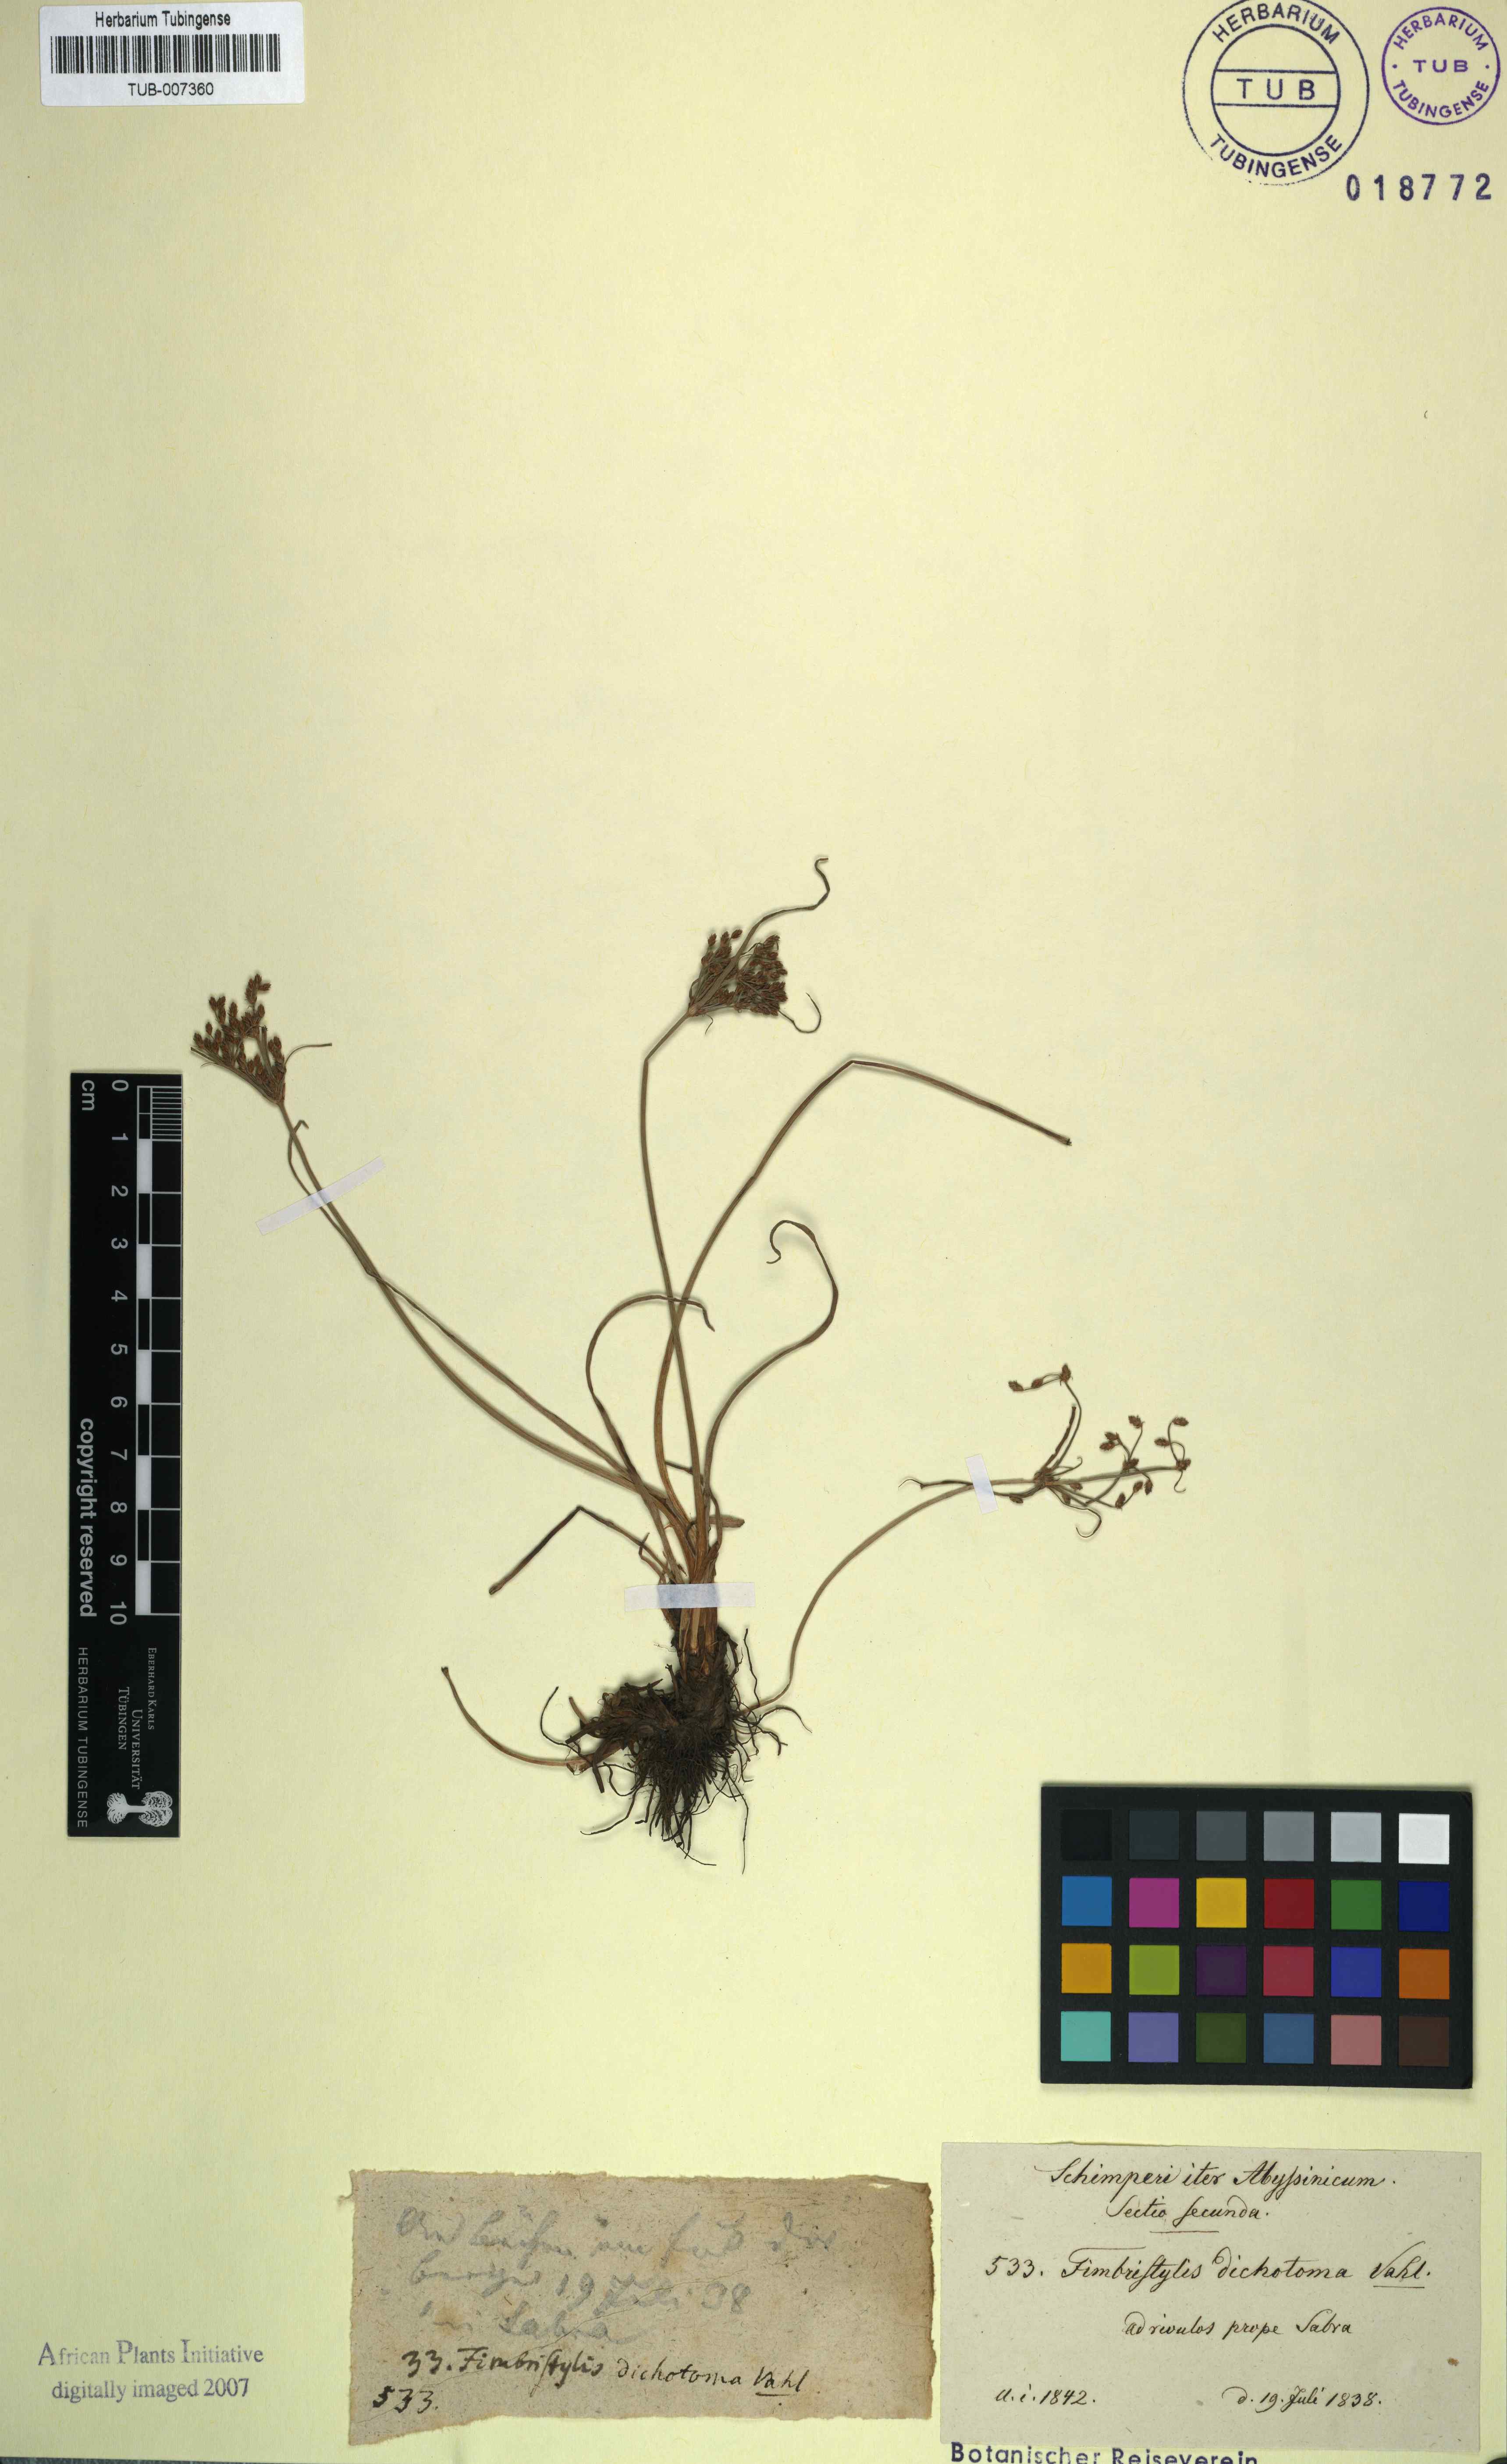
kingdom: Plantae
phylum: Tracheophyta
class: Liliopsida
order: Poales
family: Cyperaceae
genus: Fimbristylis
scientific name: Fimbristylis dichotoma
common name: Forked fimbry
